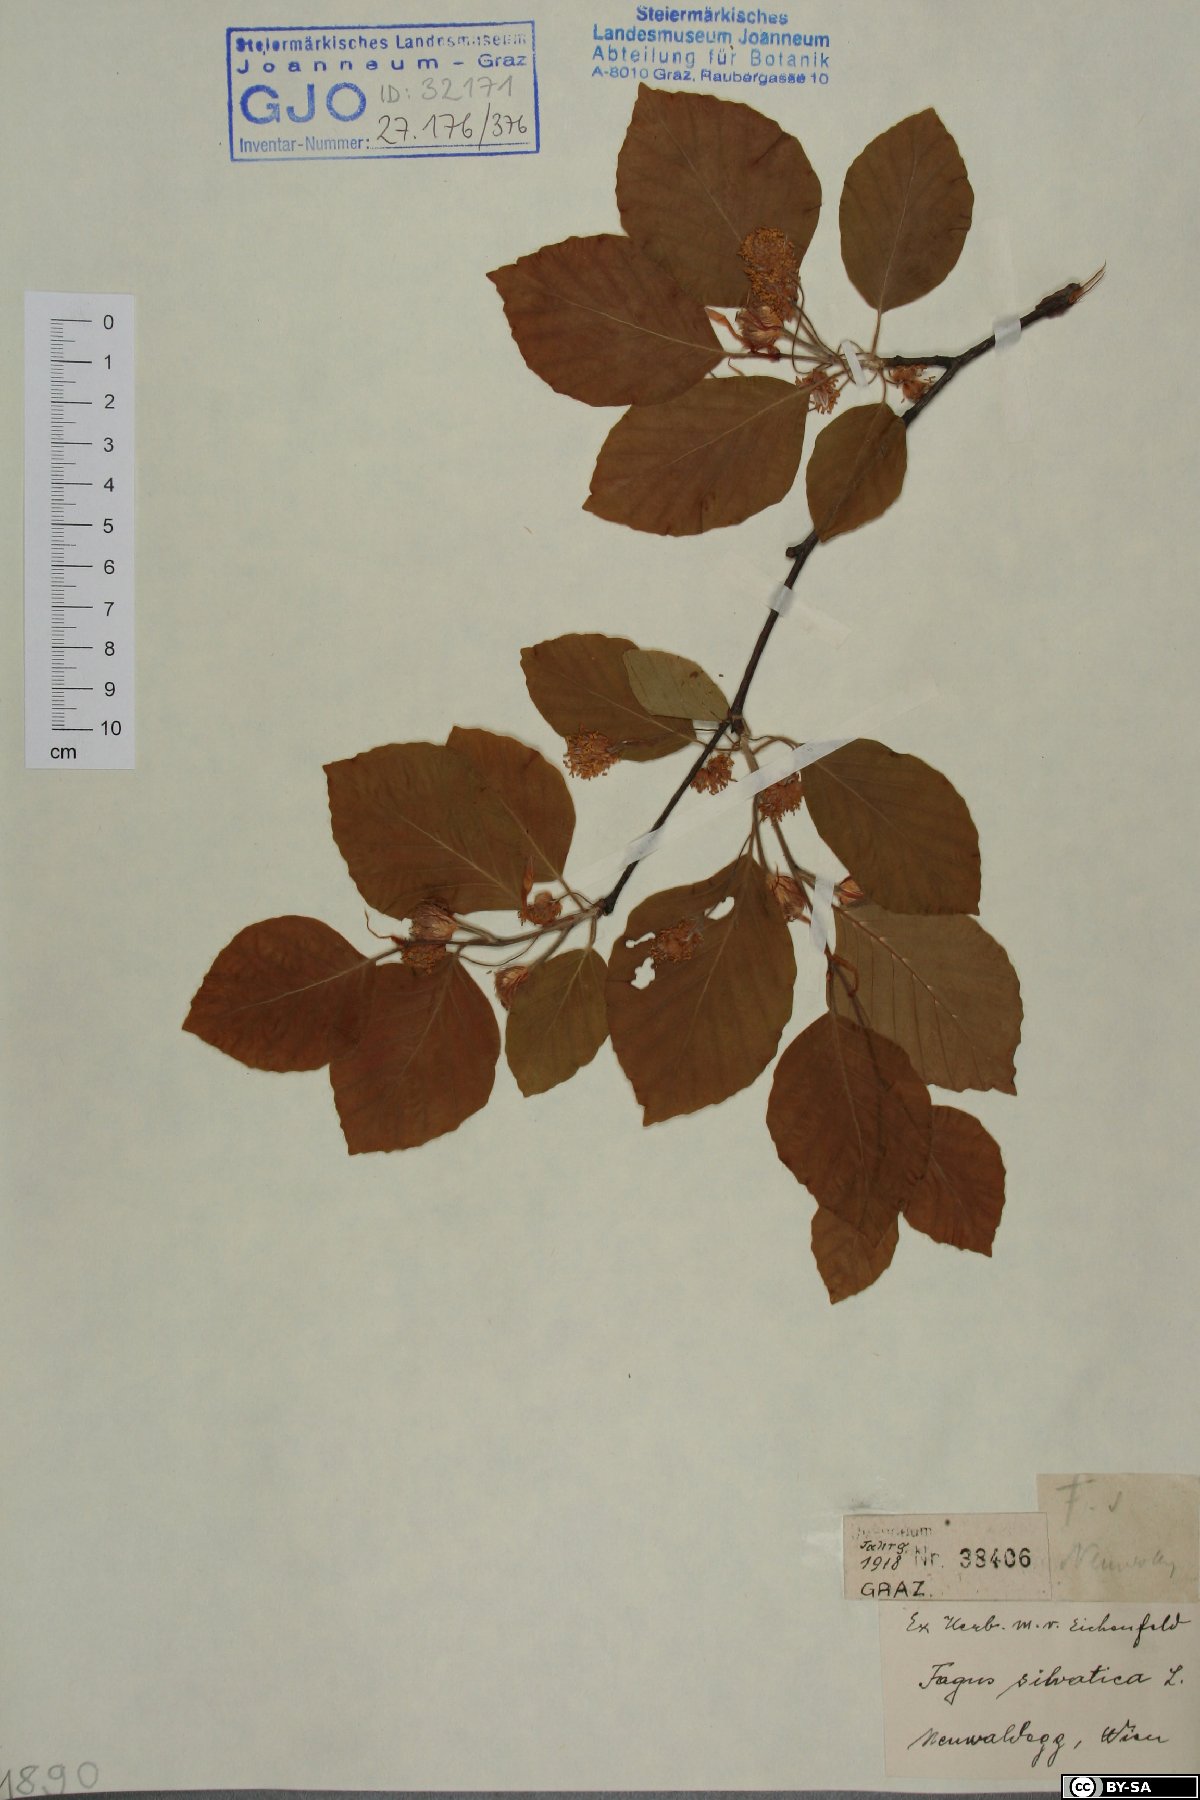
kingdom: Plantae
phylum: Tracheophyta
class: Magnoliopsida
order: Fagales
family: Fagaceae
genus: Fagus
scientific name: Fagus sylvatica
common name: Beech
